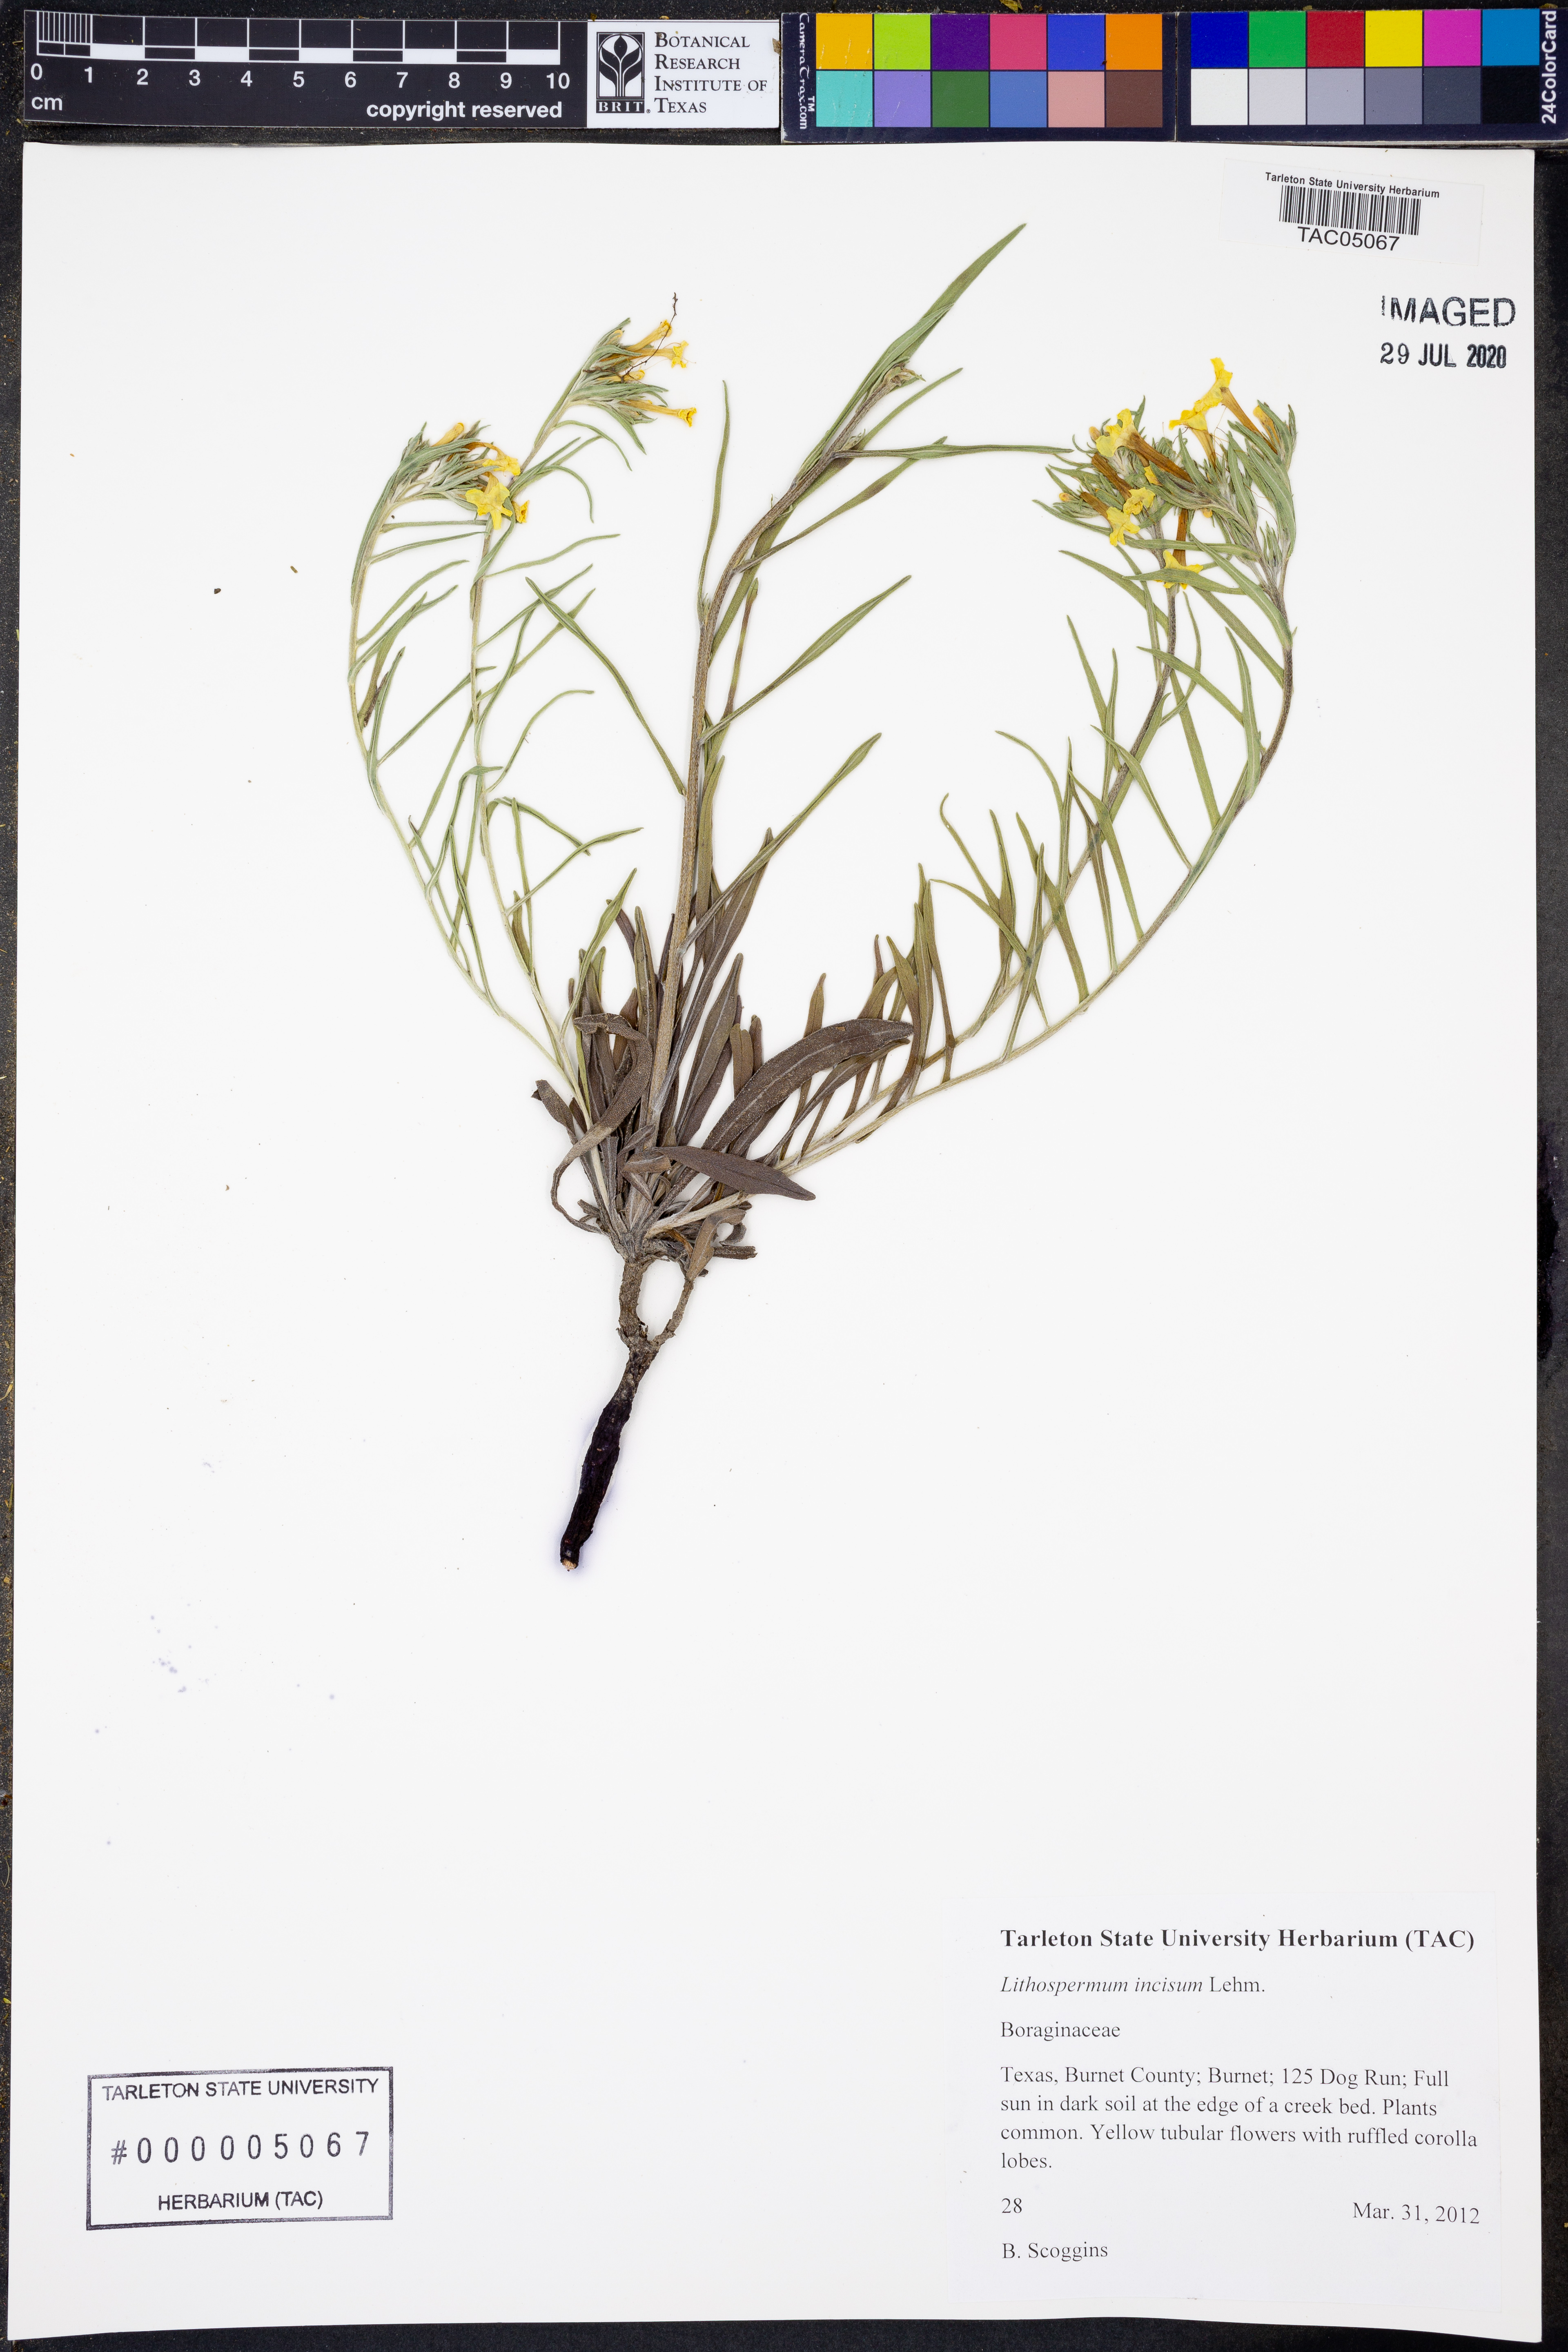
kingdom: Plantae
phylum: Tracheophyta
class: Magnoliopsida
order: Boraginales
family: Boraginaceae
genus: Lithospermum
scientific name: Lithospermum incisum
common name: Fringed gromwell
